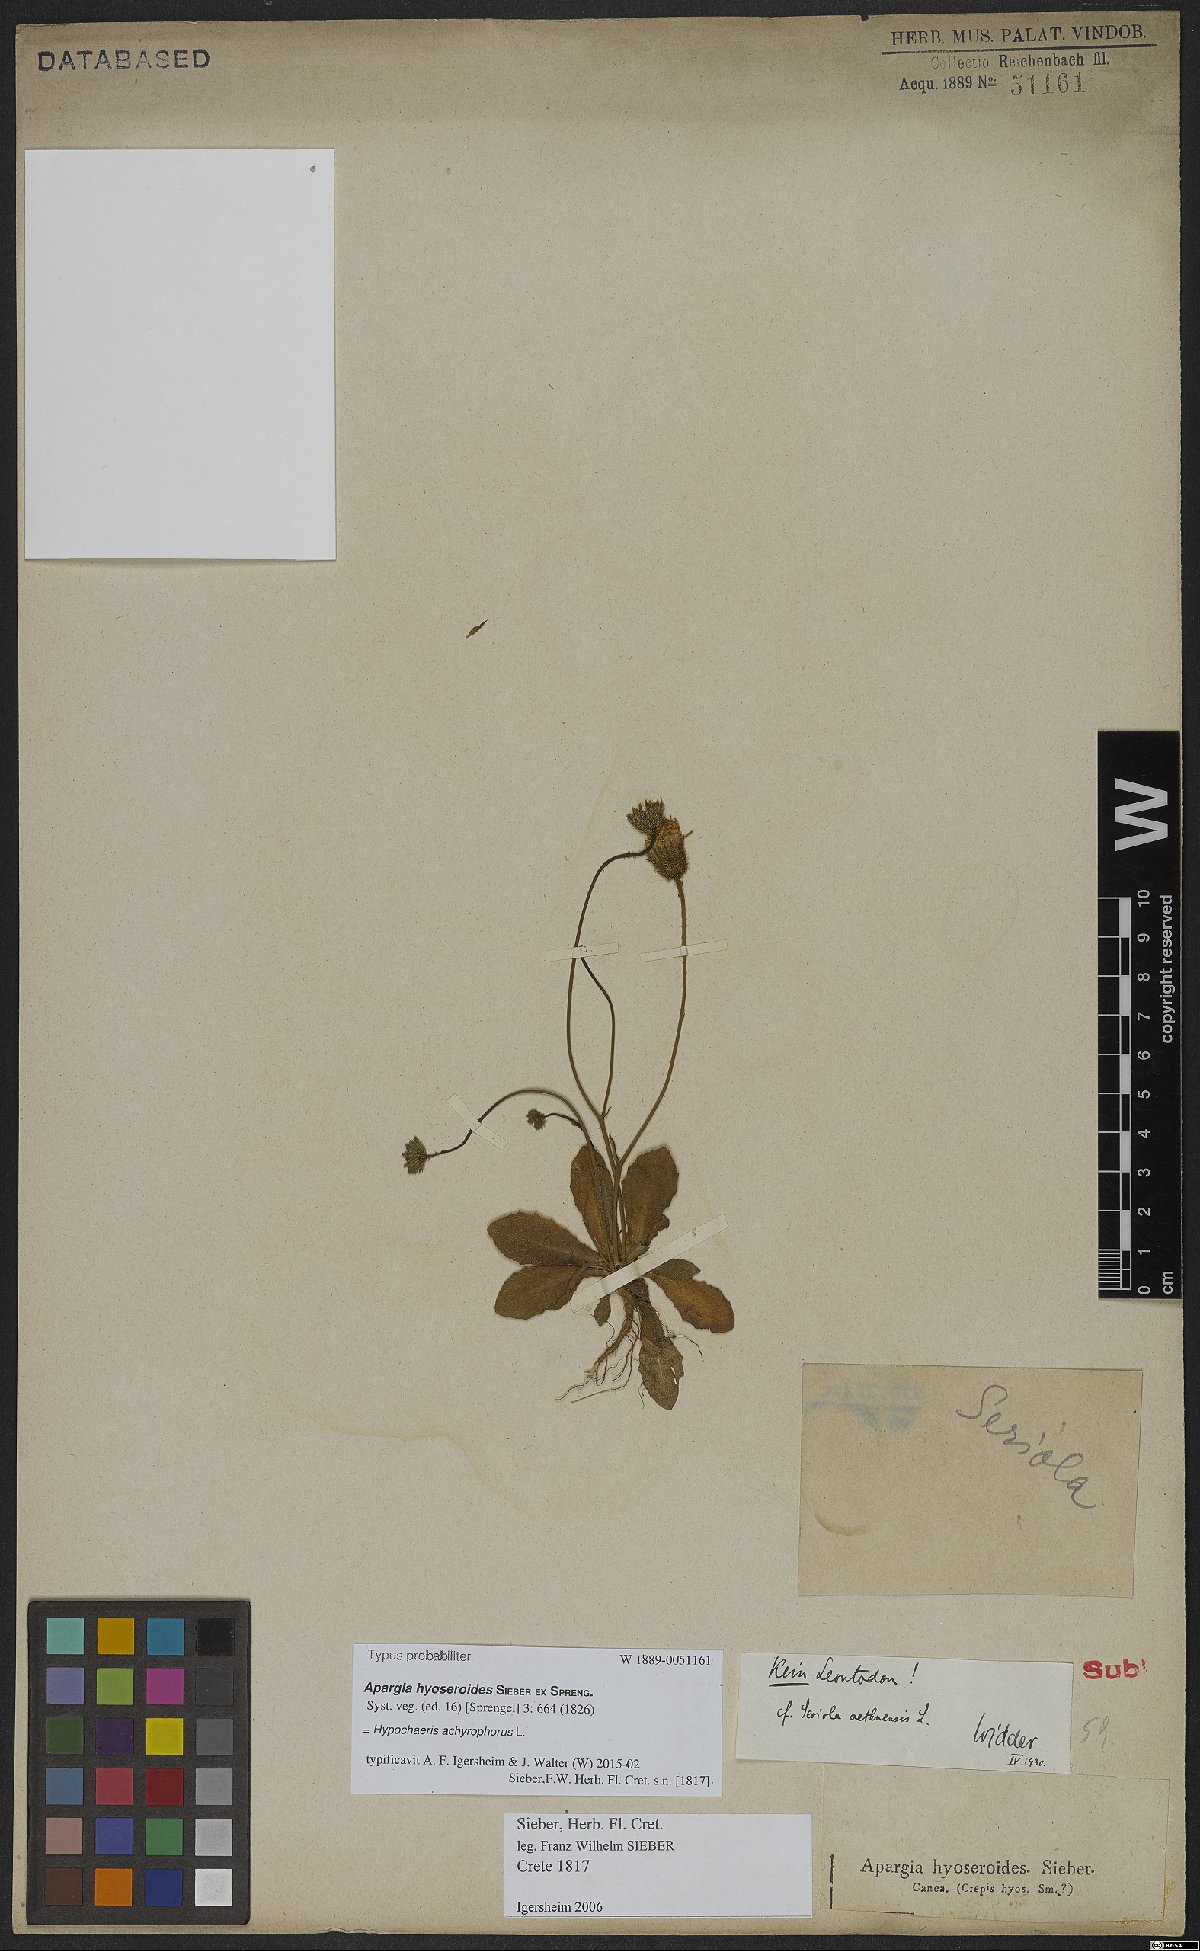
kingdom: Plantae
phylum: Tracheophyta
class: Magnoliopsida
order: Asterales
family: Asteraceae
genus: Achyrophorus
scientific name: Achyrophorus valdesii
